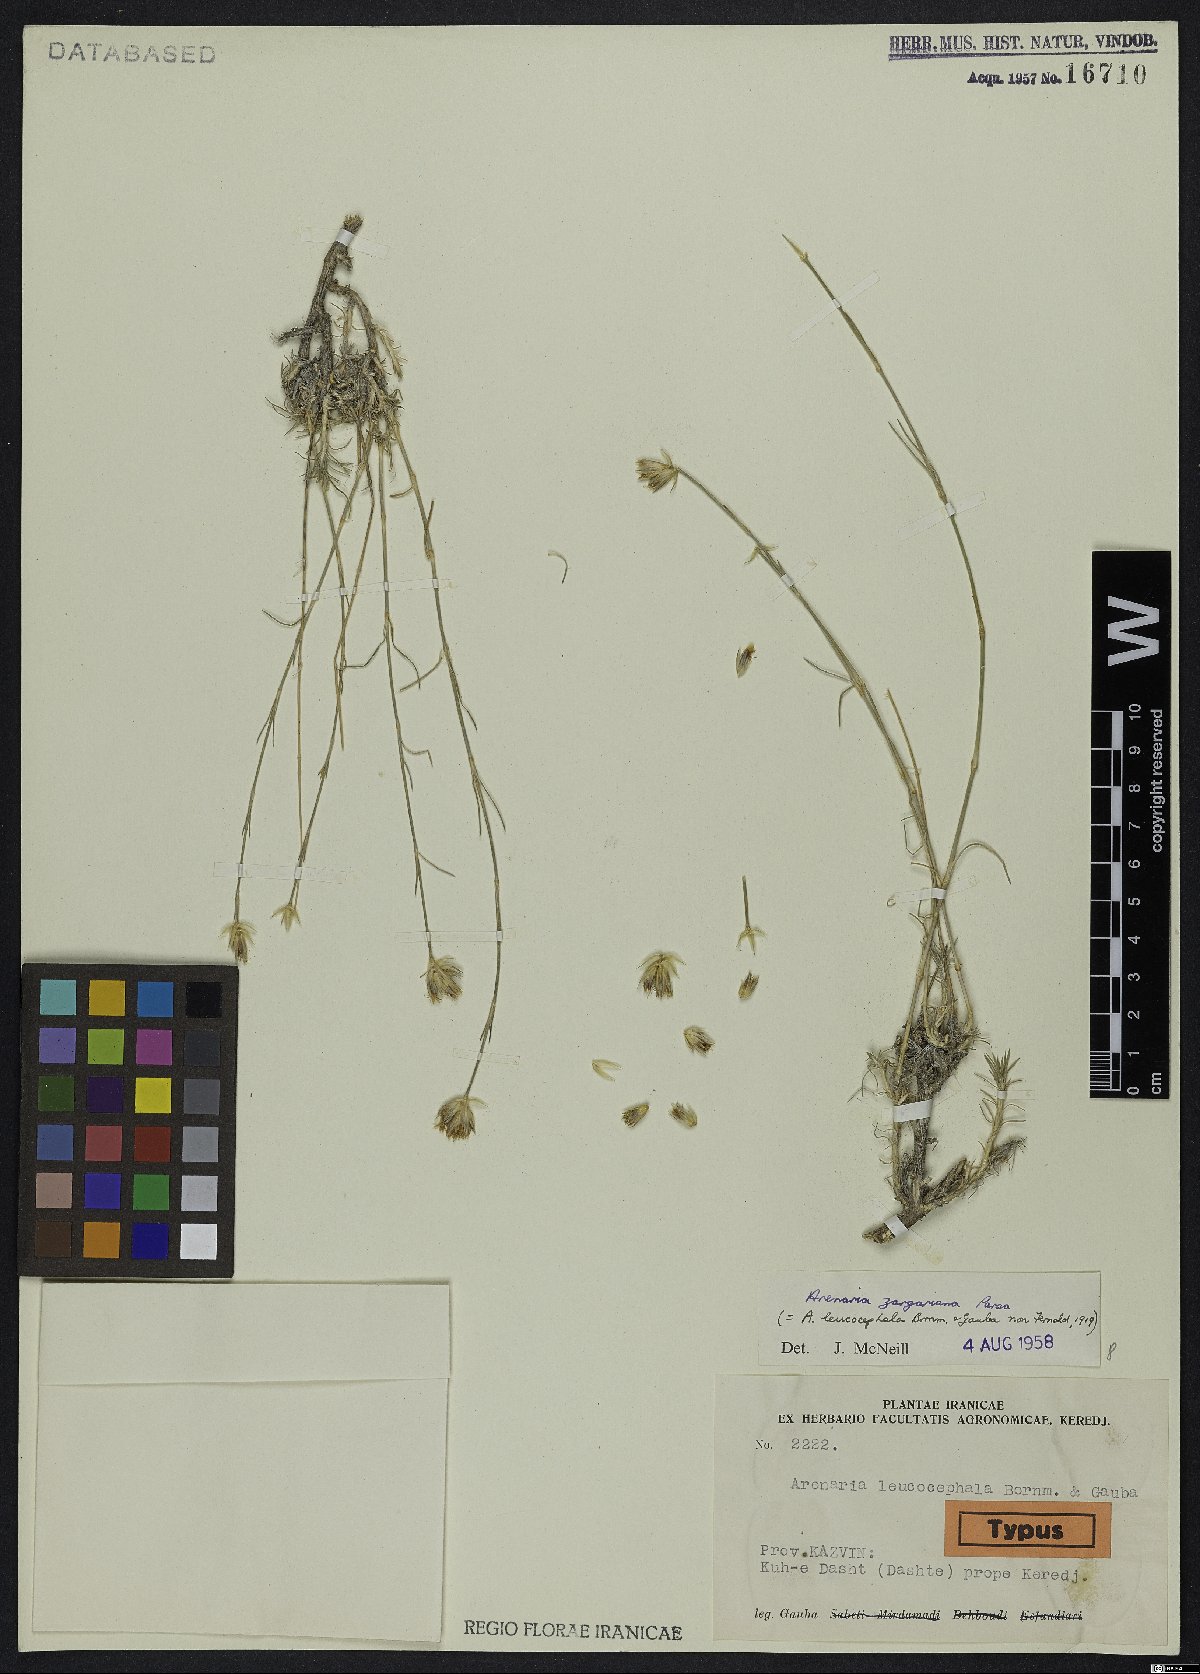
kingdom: Plantae
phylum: Tracheophyta
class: Magnoliopsida
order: Caryophyllales
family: Caryophyllaceae
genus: Eremogone
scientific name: Eremogone zargariana
